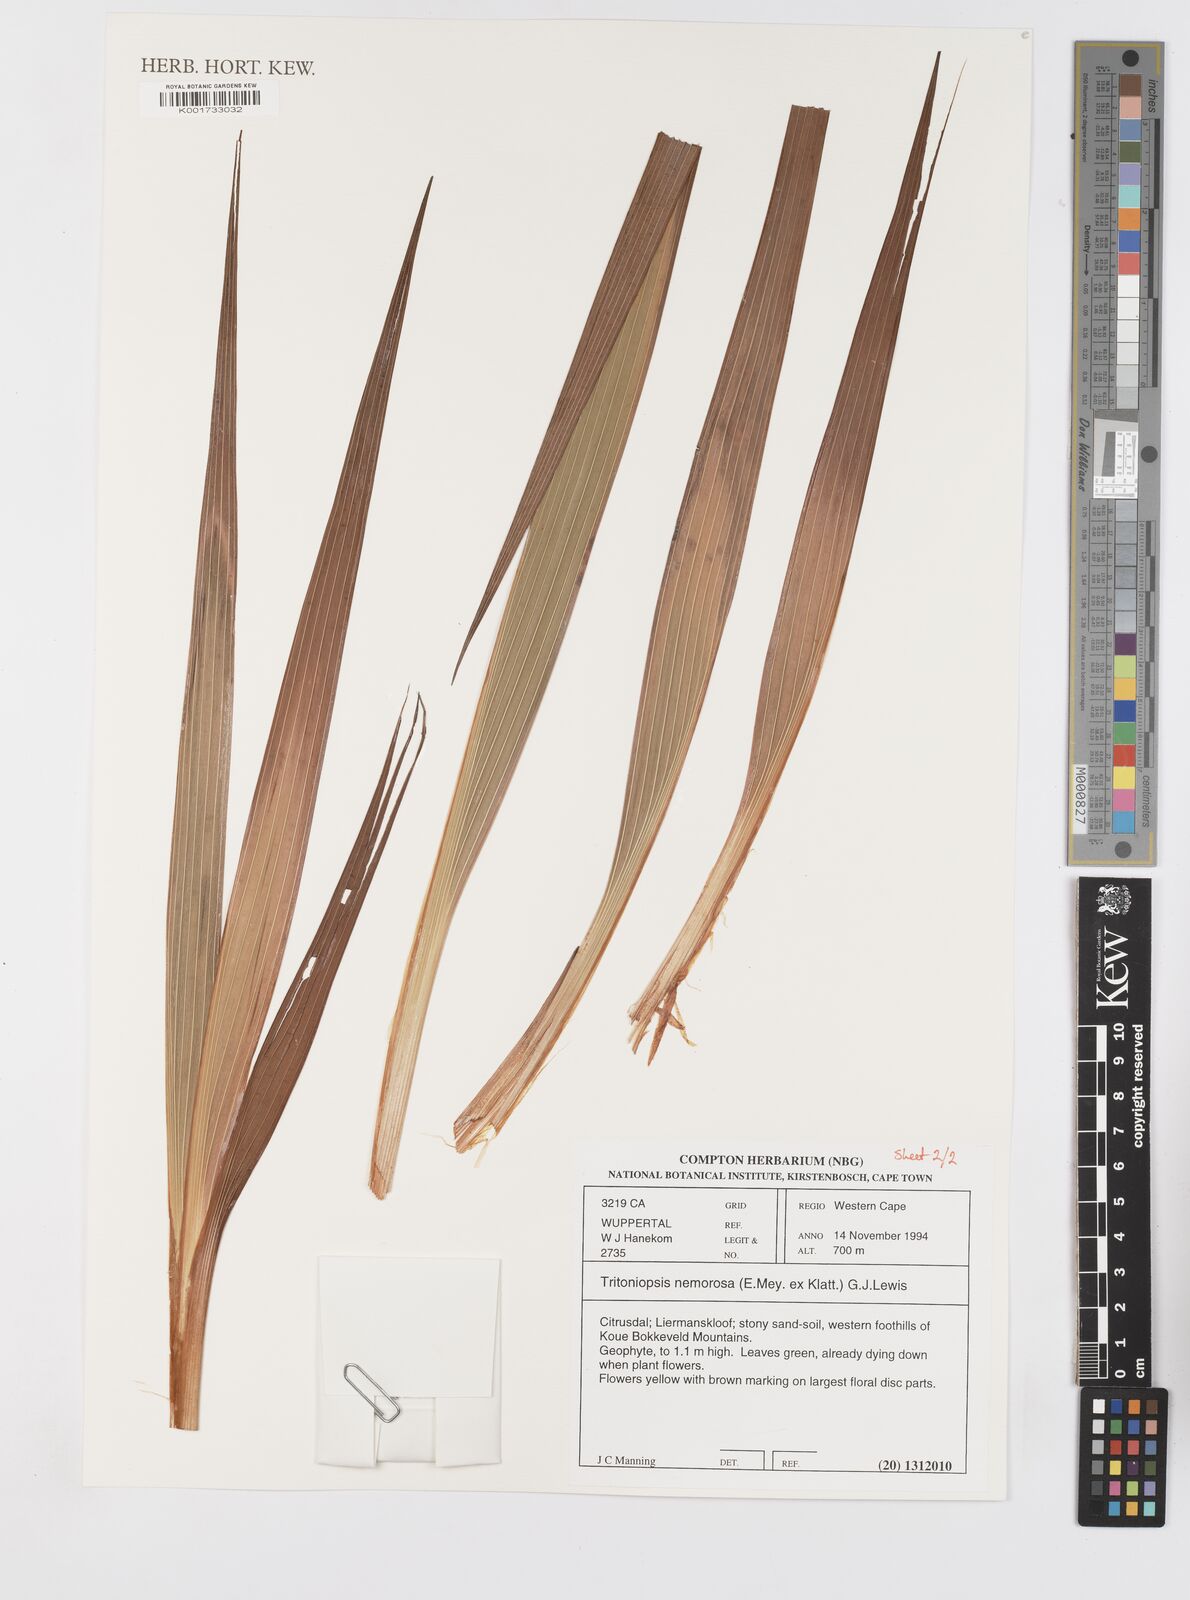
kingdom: Plantae
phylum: Tracheophyta
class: Liliopsida
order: Asparagales
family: Iridaceae
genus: Tritoniopsis
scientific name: Tritoniopsis nemorosa
